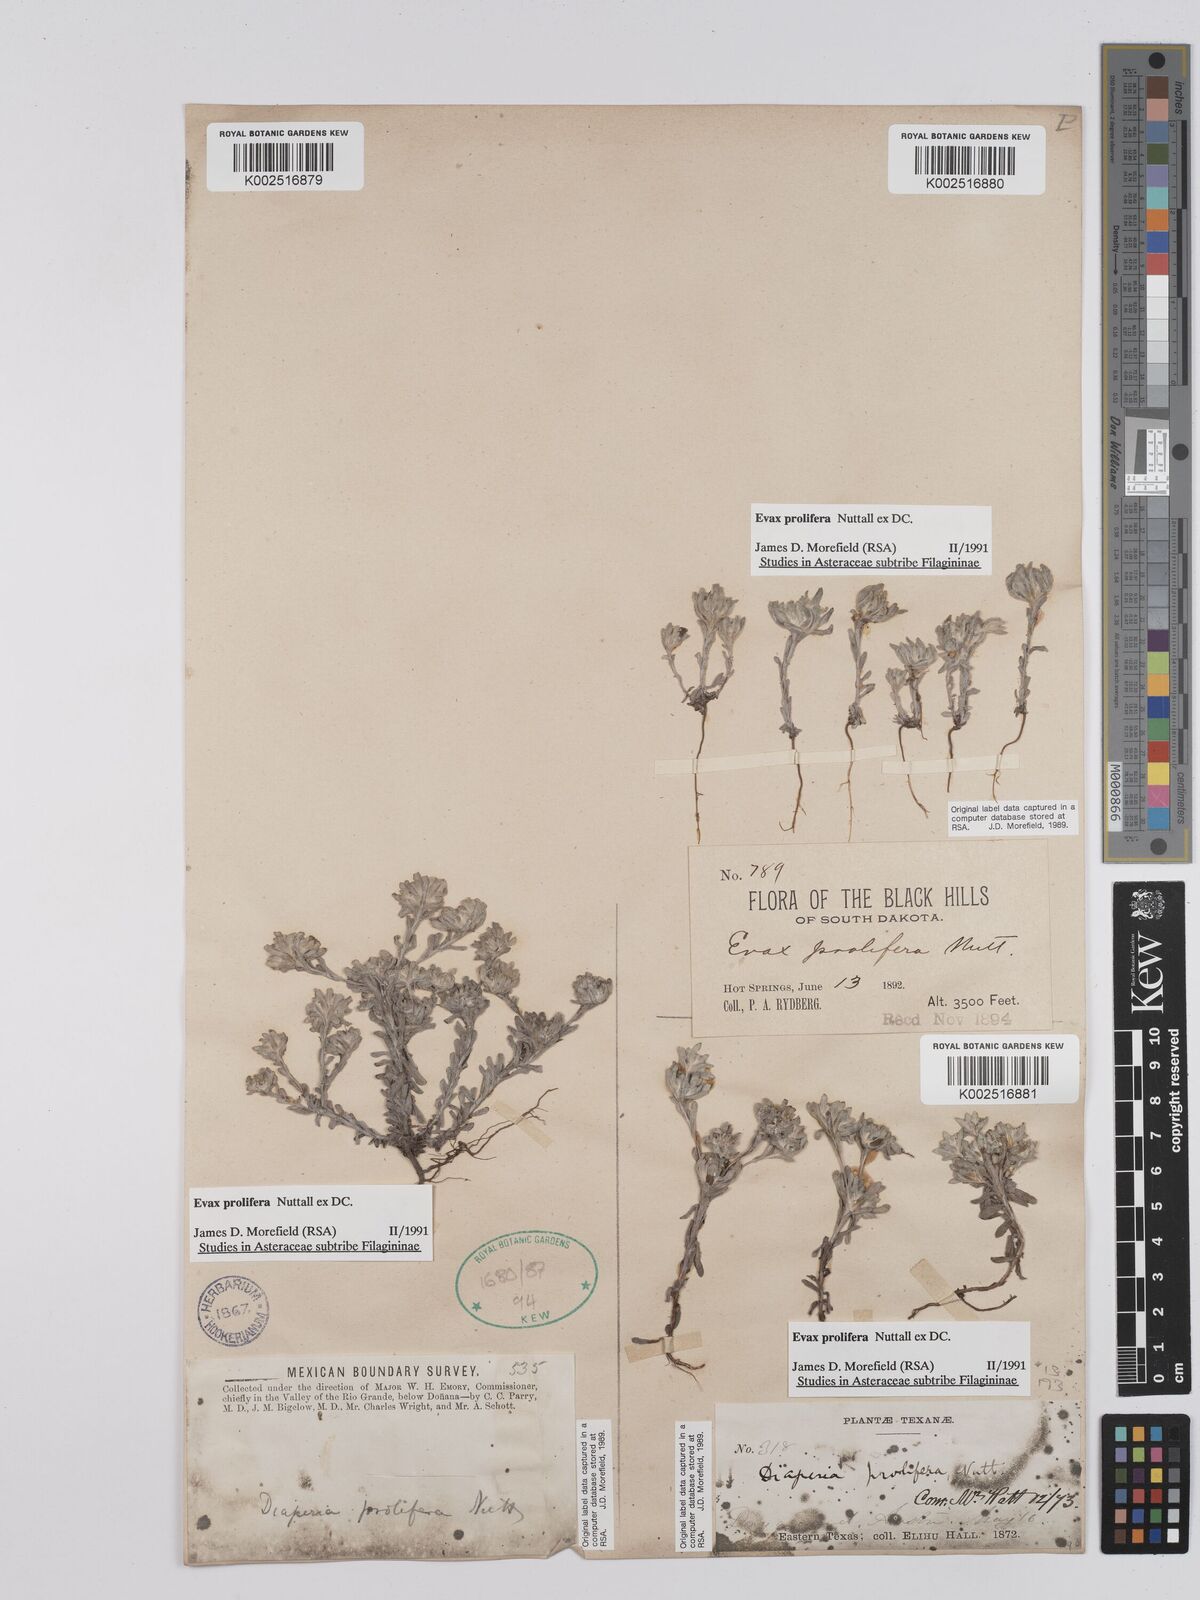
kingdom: Plantae
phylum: Tracheophyta
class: Magnoliopsida
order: Asterales
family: Asteraceae
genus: Diaperia
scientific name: Diaperia prolifera
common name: Big-head rabbit-tobacco
